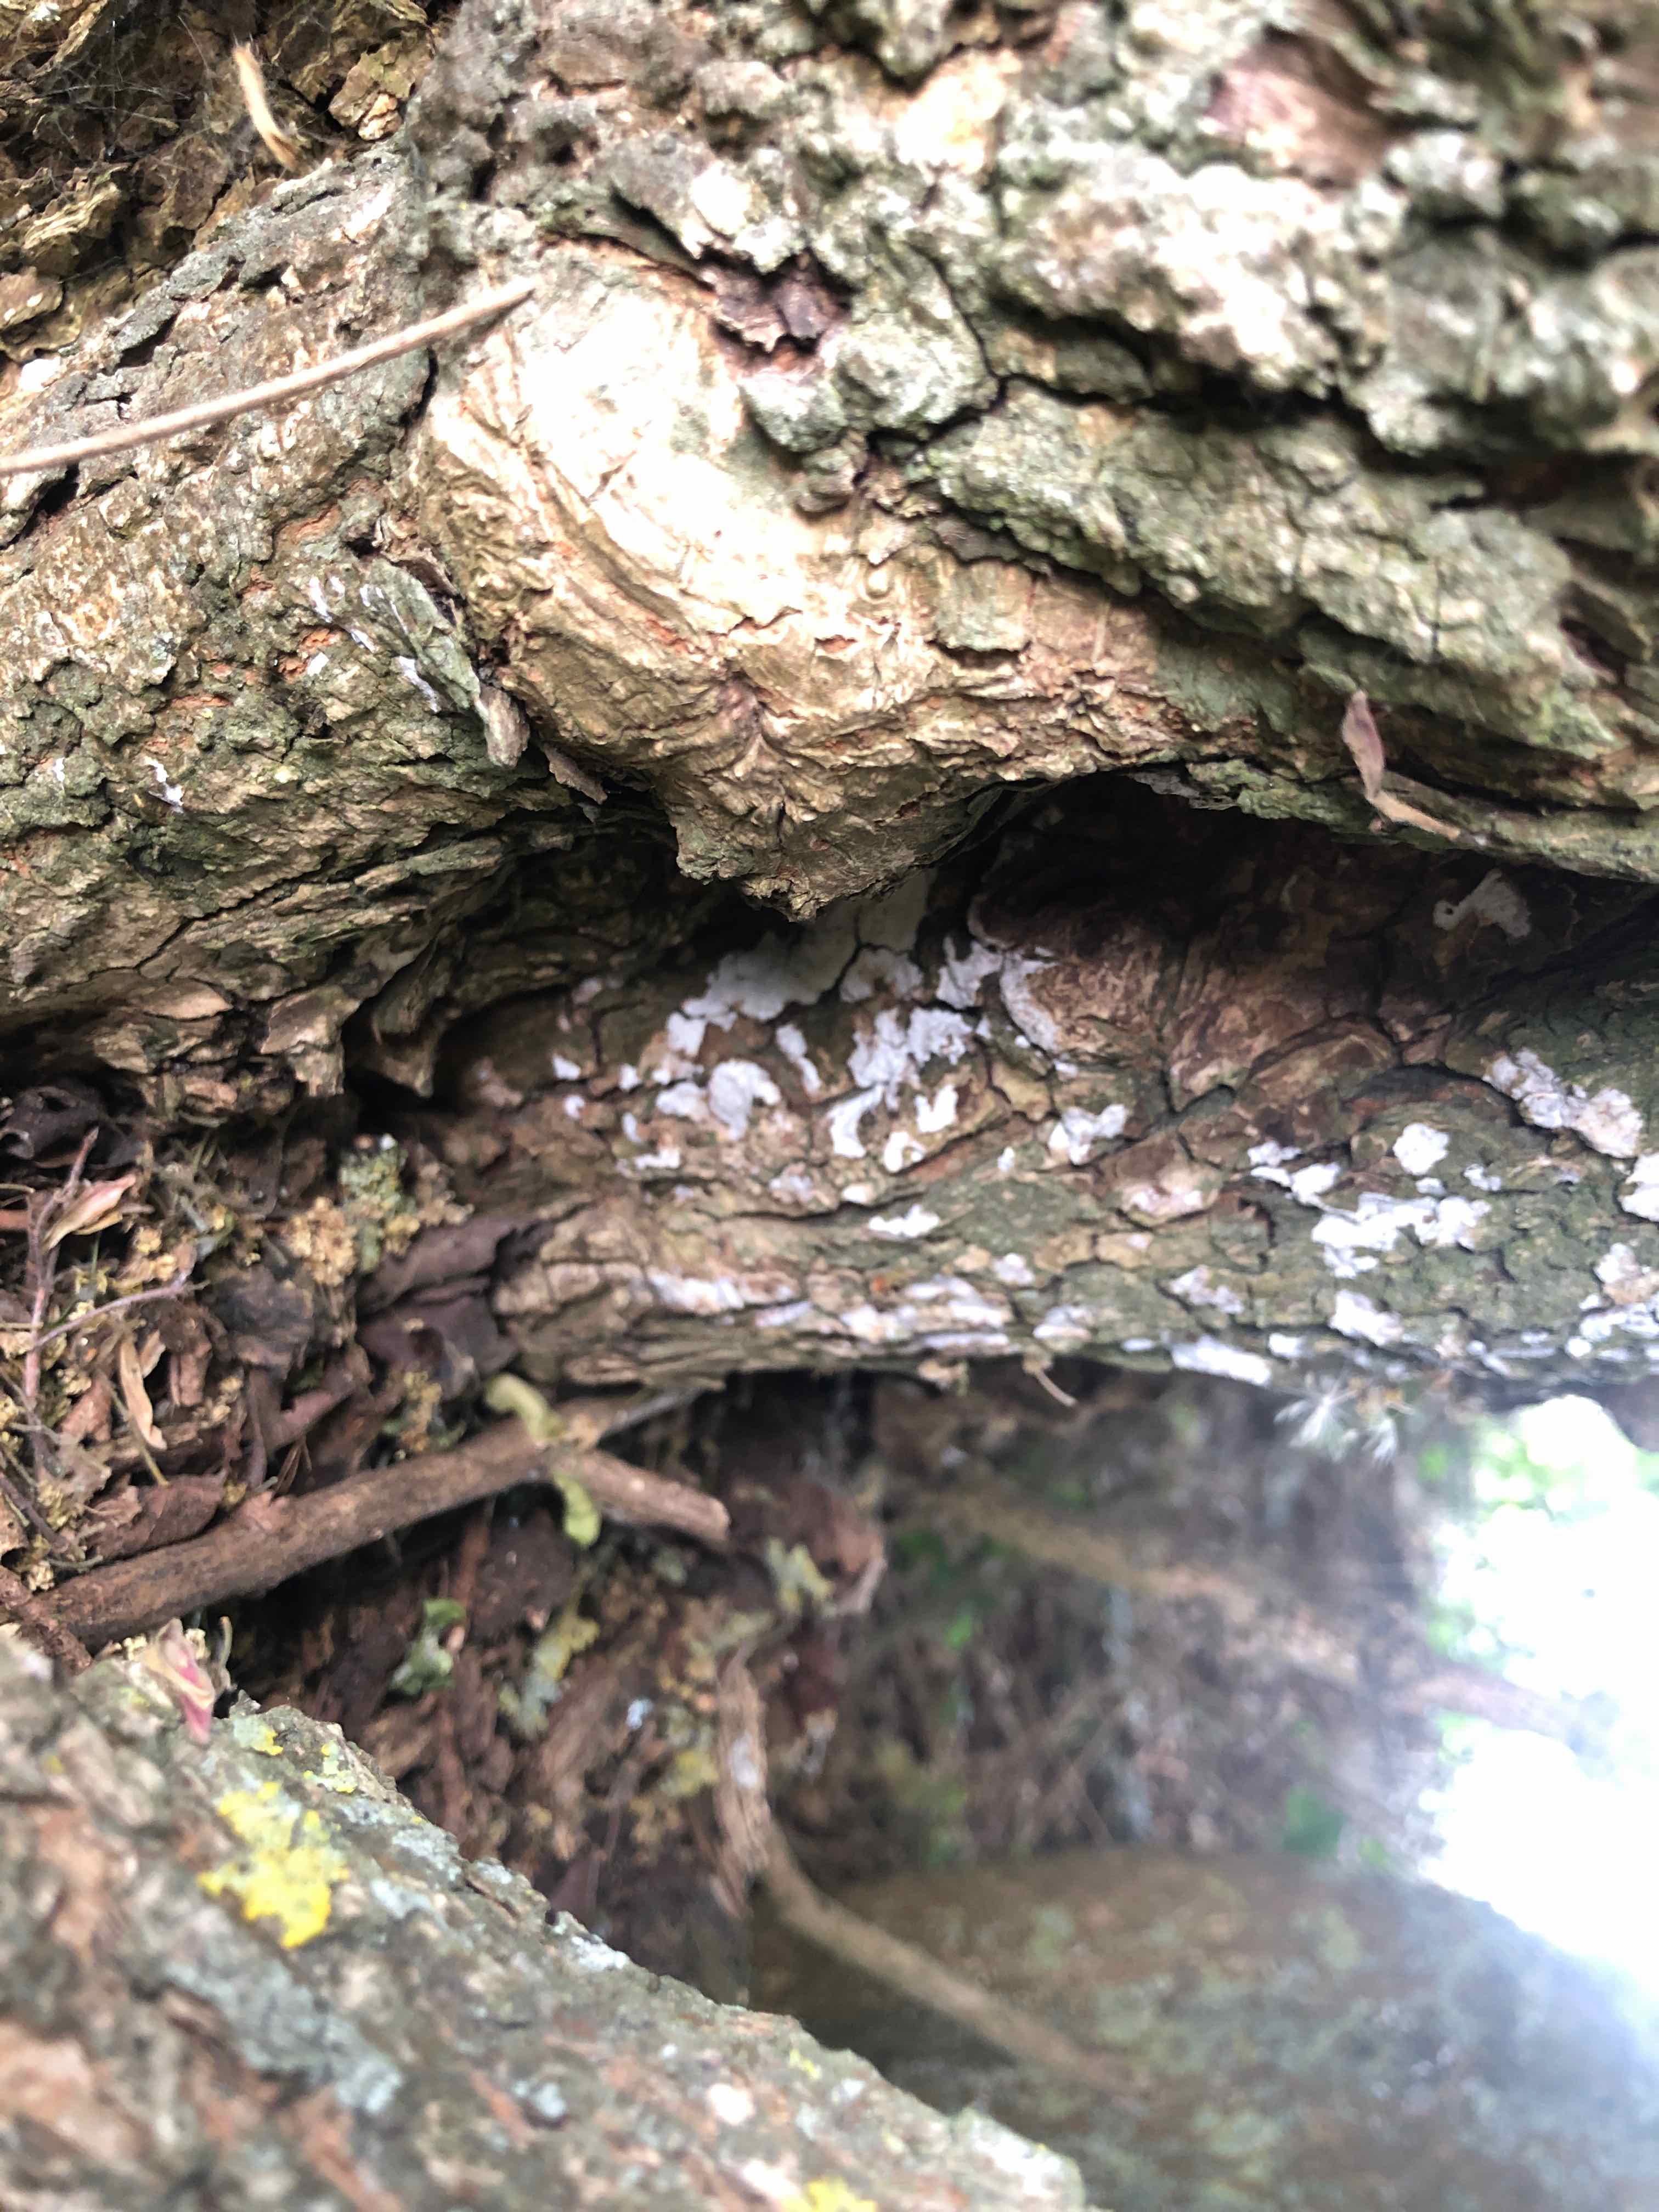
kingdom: Fungi
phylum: Basidiomycota
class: Agaricomycetes
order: Agaricales
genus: Dendrothele
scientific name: Dendrothele acerina
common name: navr-kalkplet
